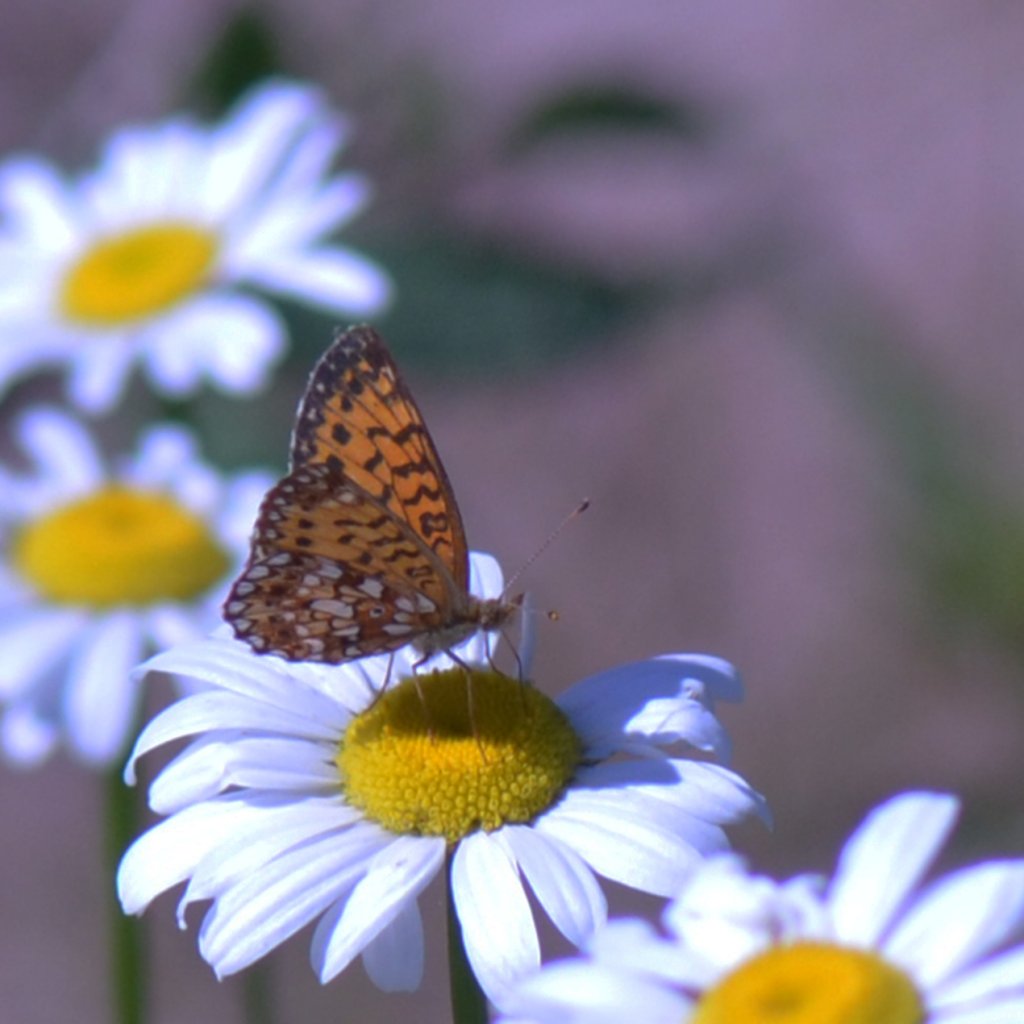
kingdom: Animalia
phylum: Arthropoda
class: Insecta
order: Lepidoptera
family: Nymphalidae
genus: Boloria
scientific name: Boloria selene
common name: Silver-bordered Fritillary
